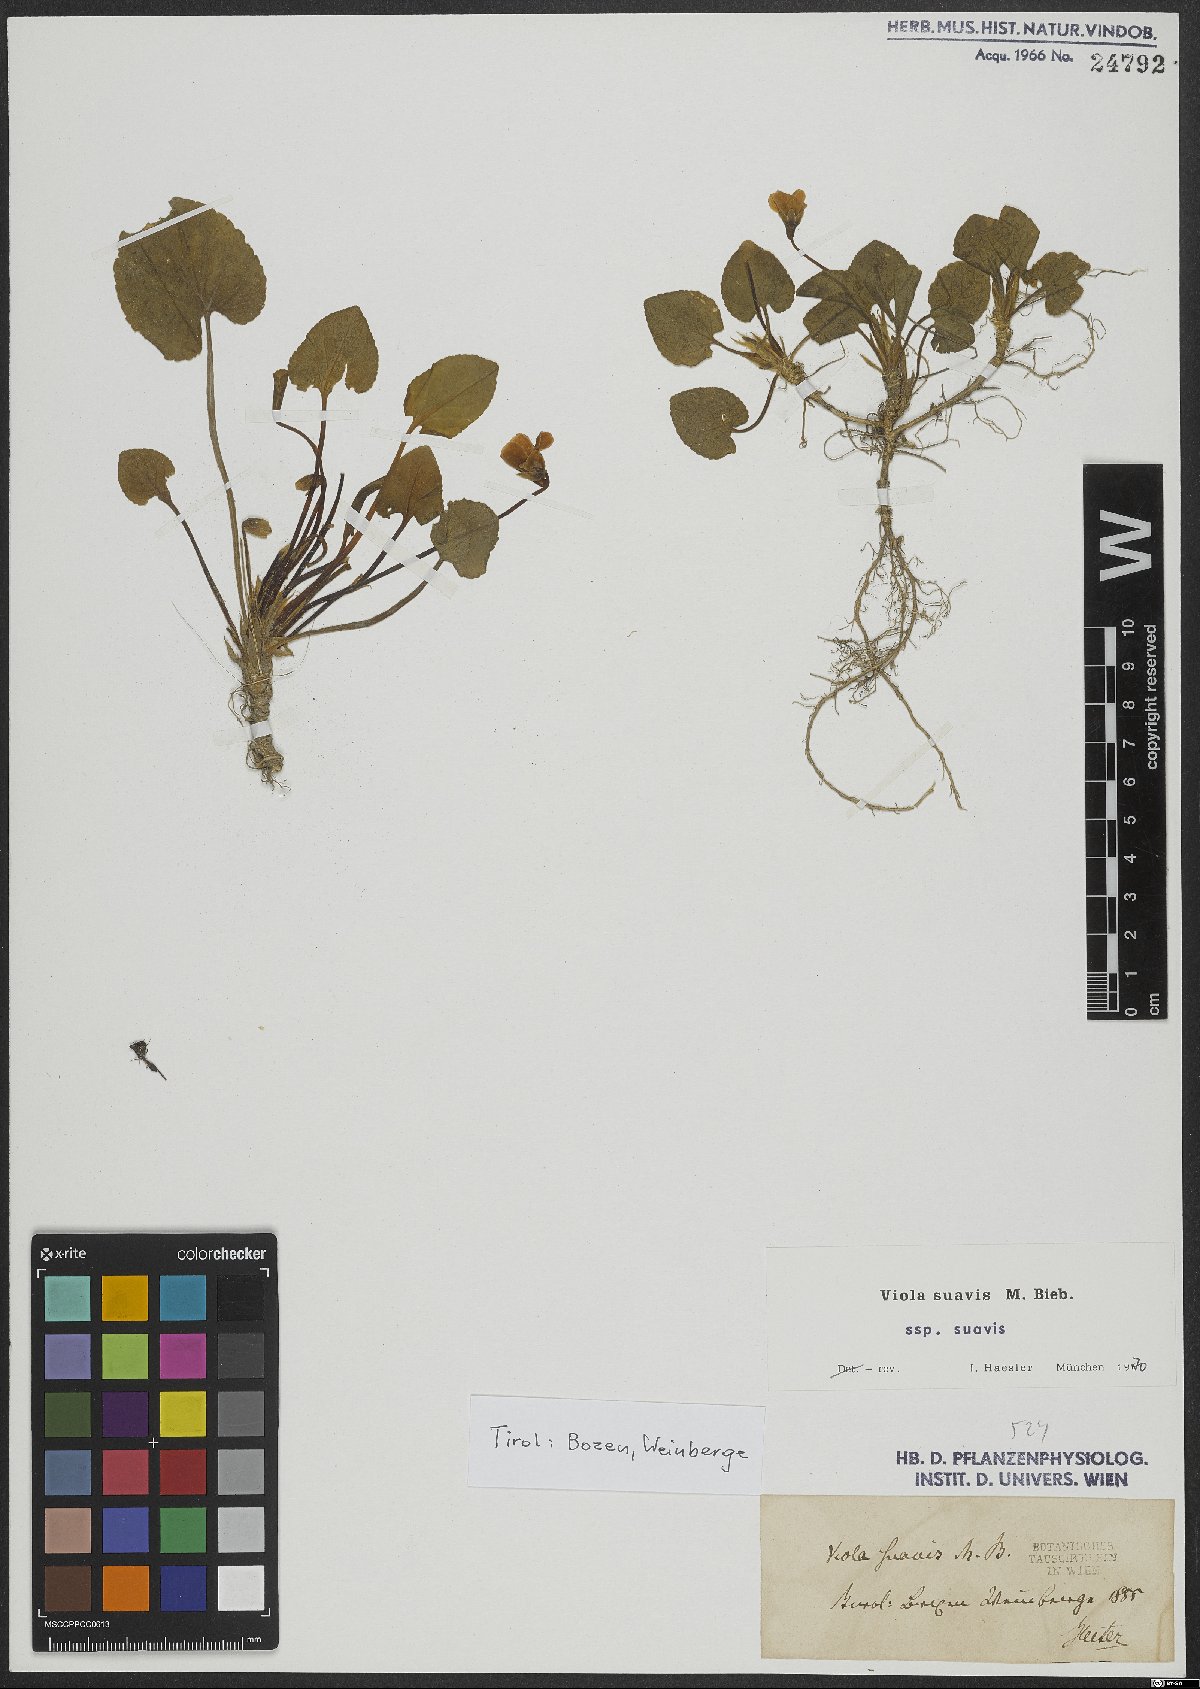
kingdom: Plantae
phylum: Tracheophyta
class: Magnoliopsida
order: Malpighiales
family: Violaceae
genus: Viola
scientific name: Viola suavis
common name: Russian violet
